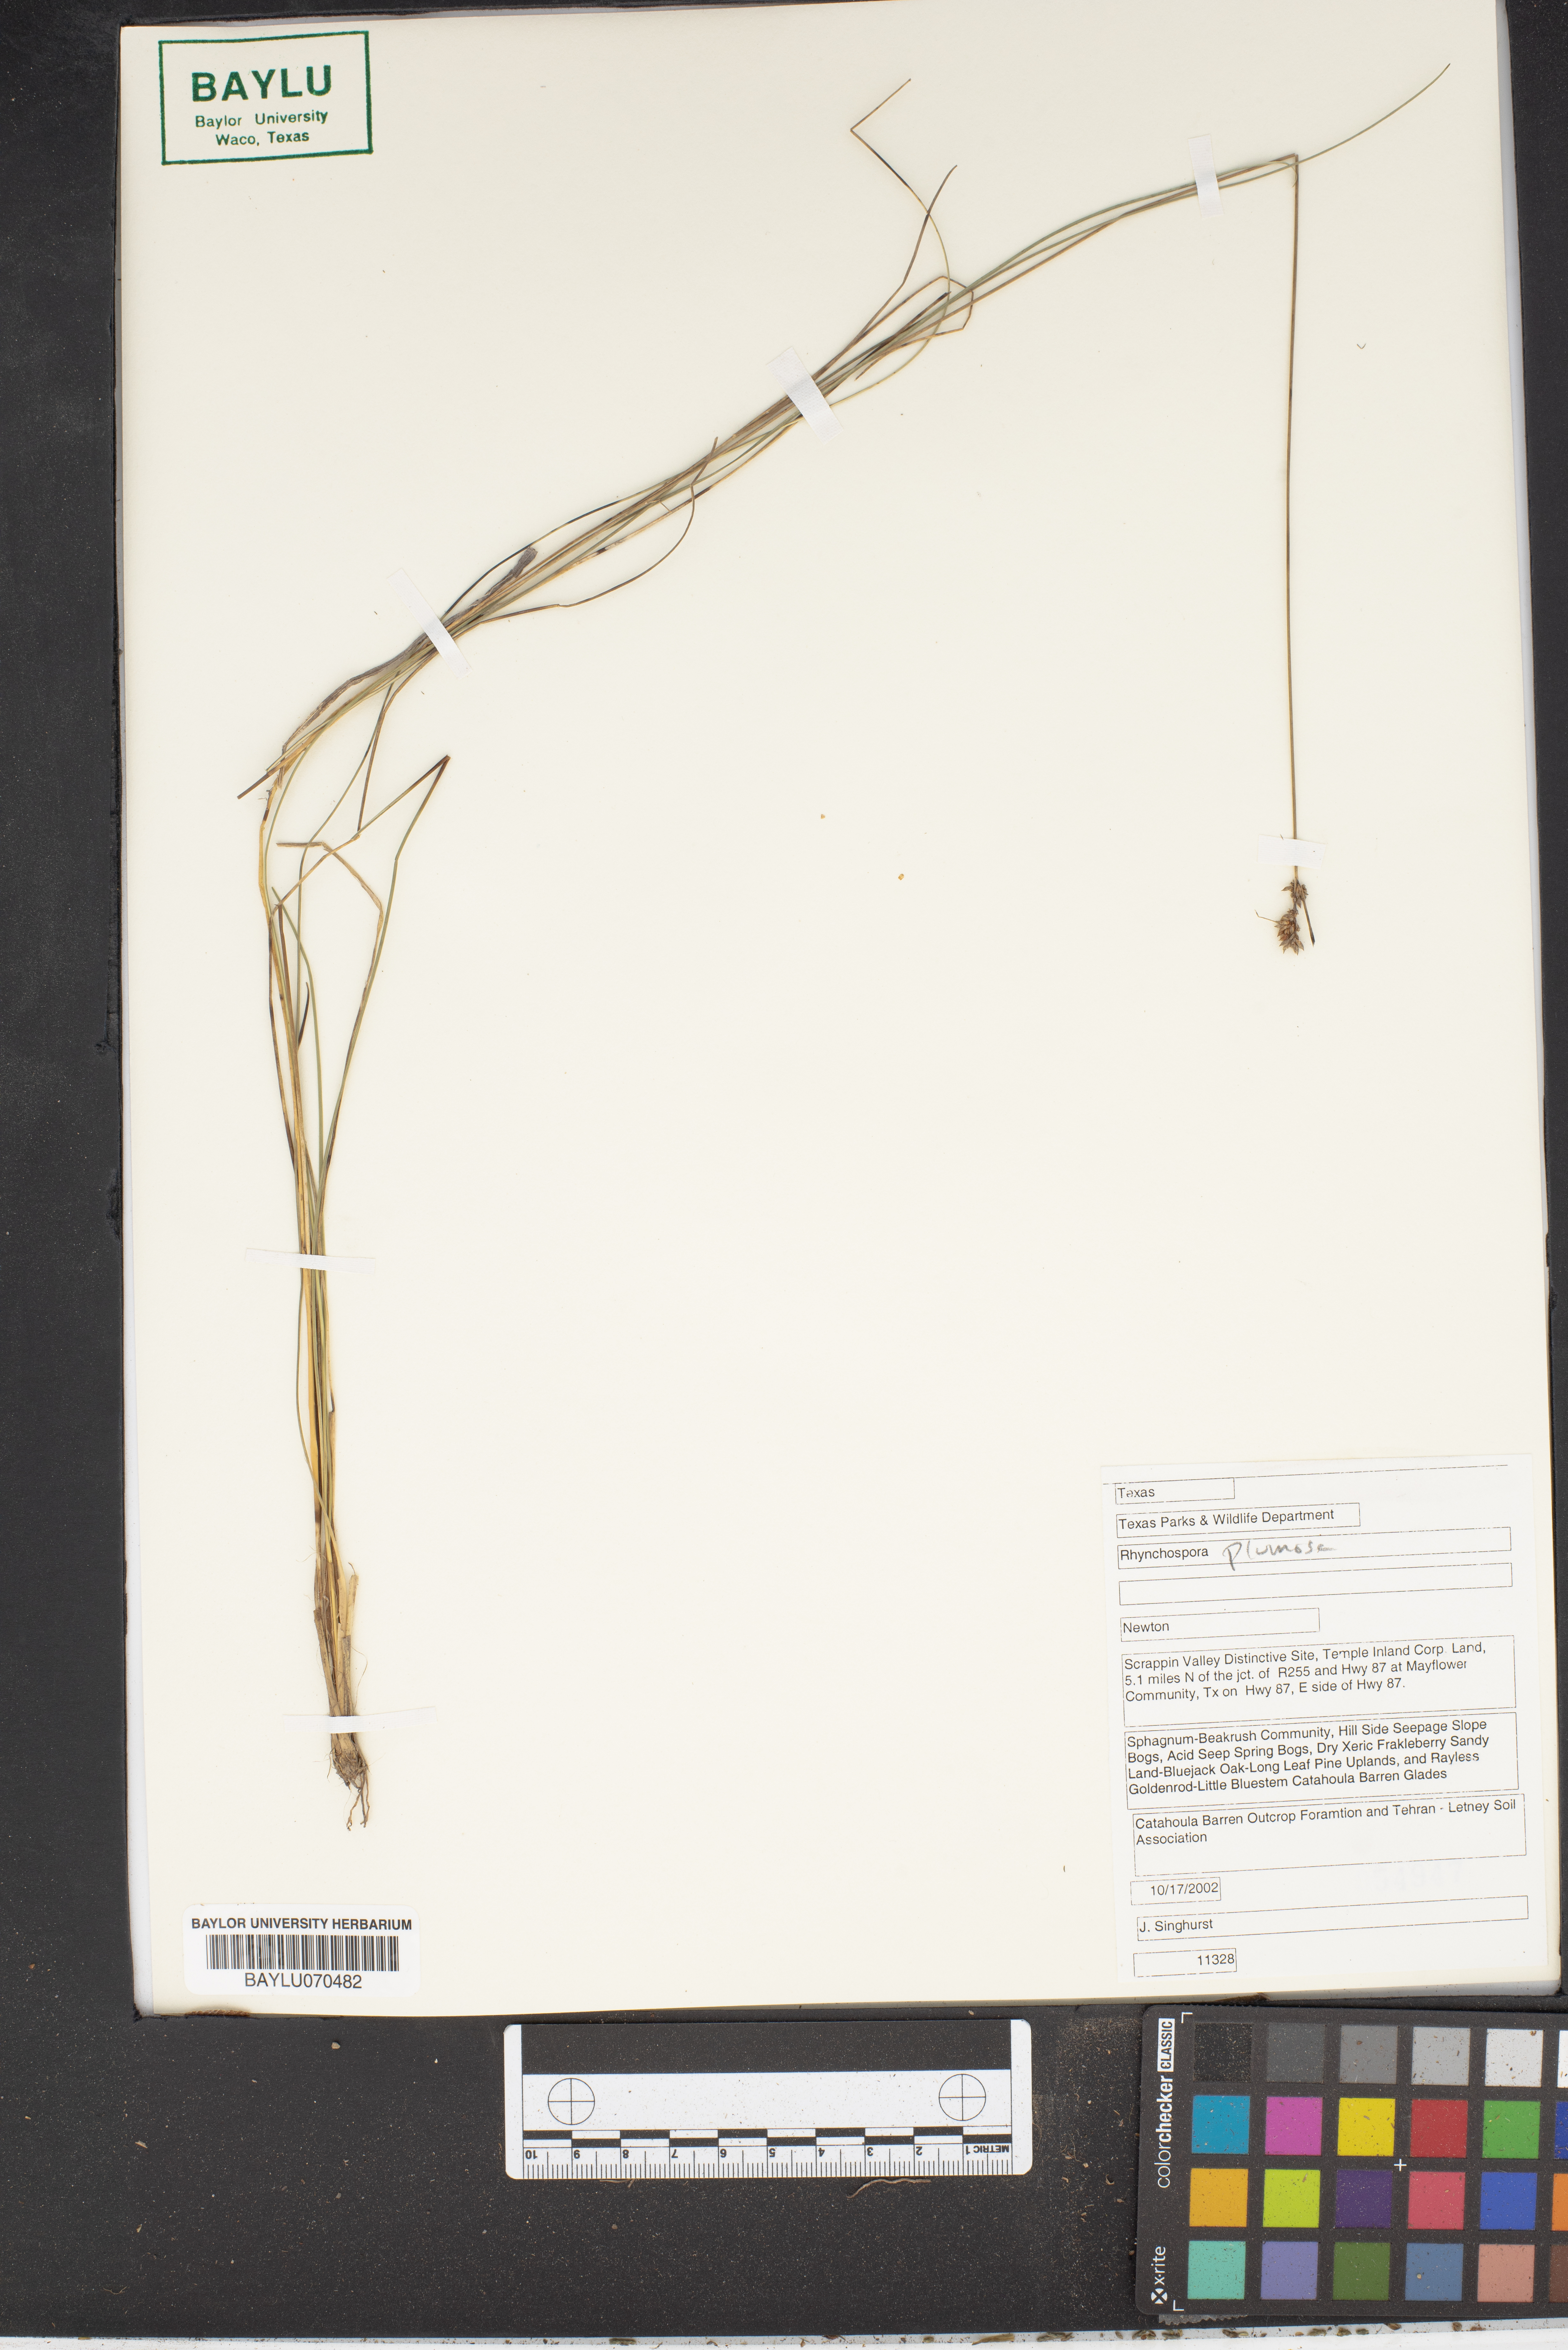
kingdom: Plantae
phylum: Tracheophyta
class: Liliopsida
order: Poales
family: Cyperaceae
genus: Rhynchospora
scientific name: Rhynchospora plumosa
